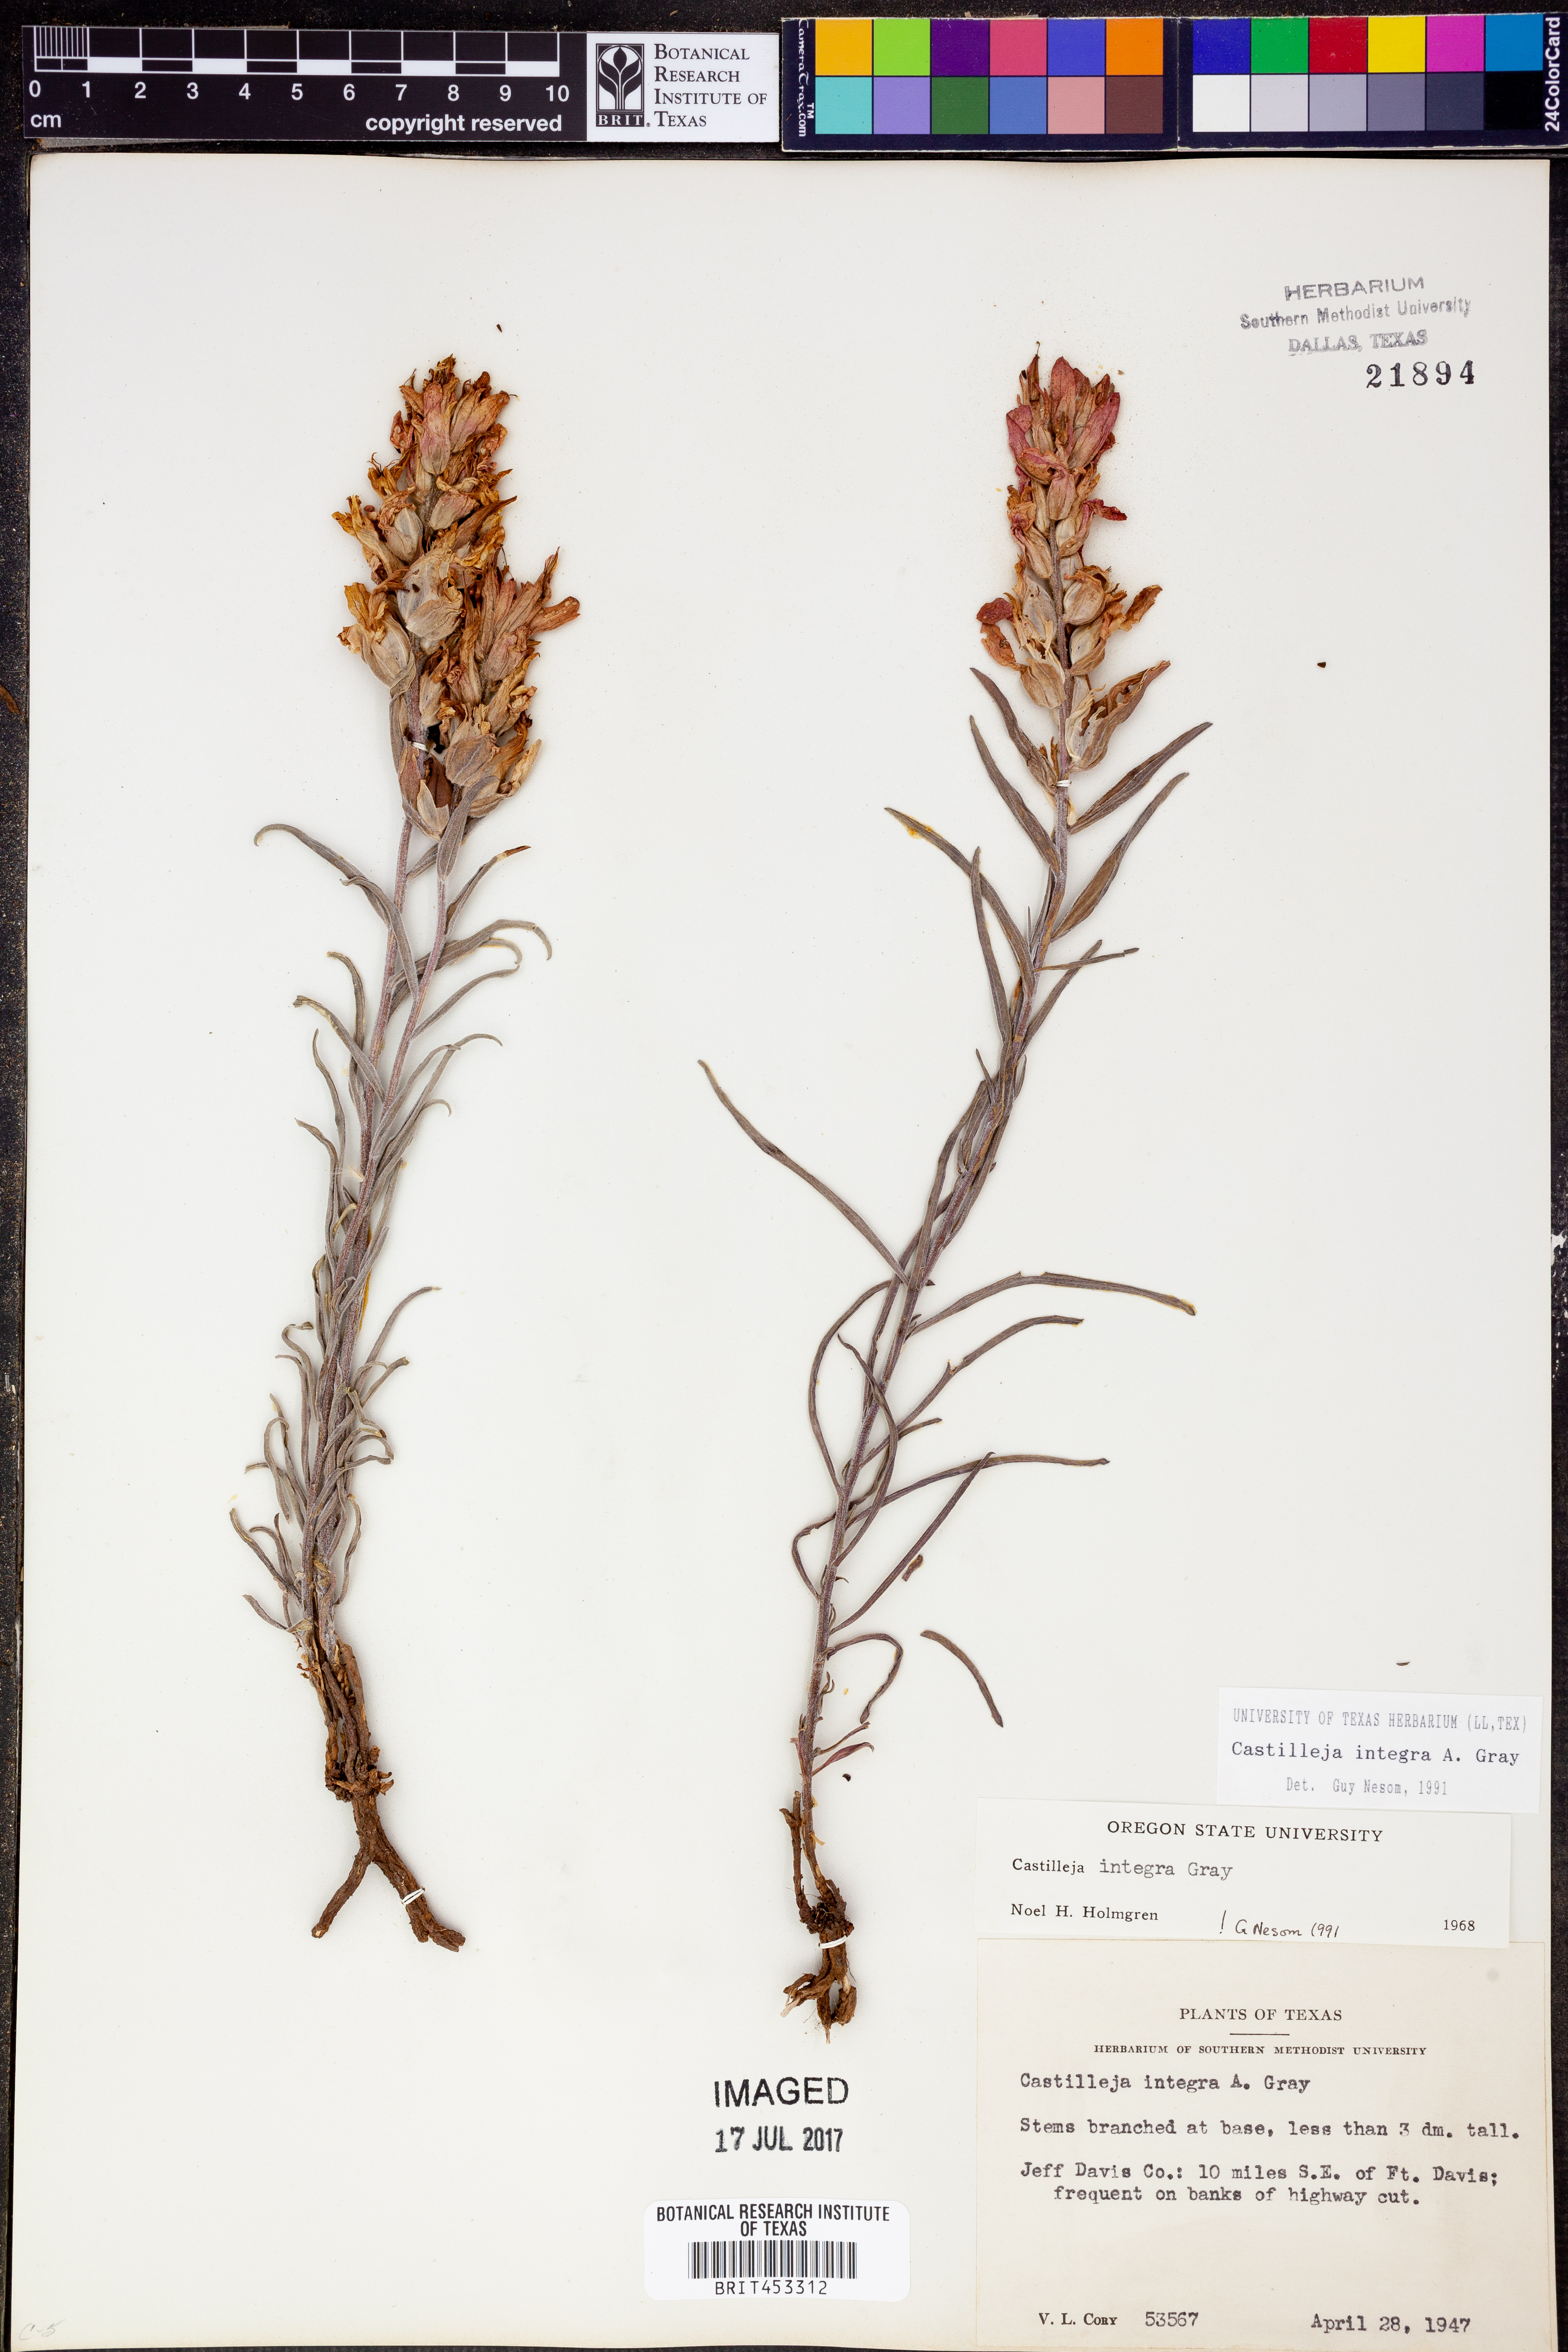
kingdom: Plantae
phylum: Tracheophyta
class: Magnoliopsida
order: Lamiales
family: Orobanchaceae
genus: Castilleja
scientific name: Castilleja integra
